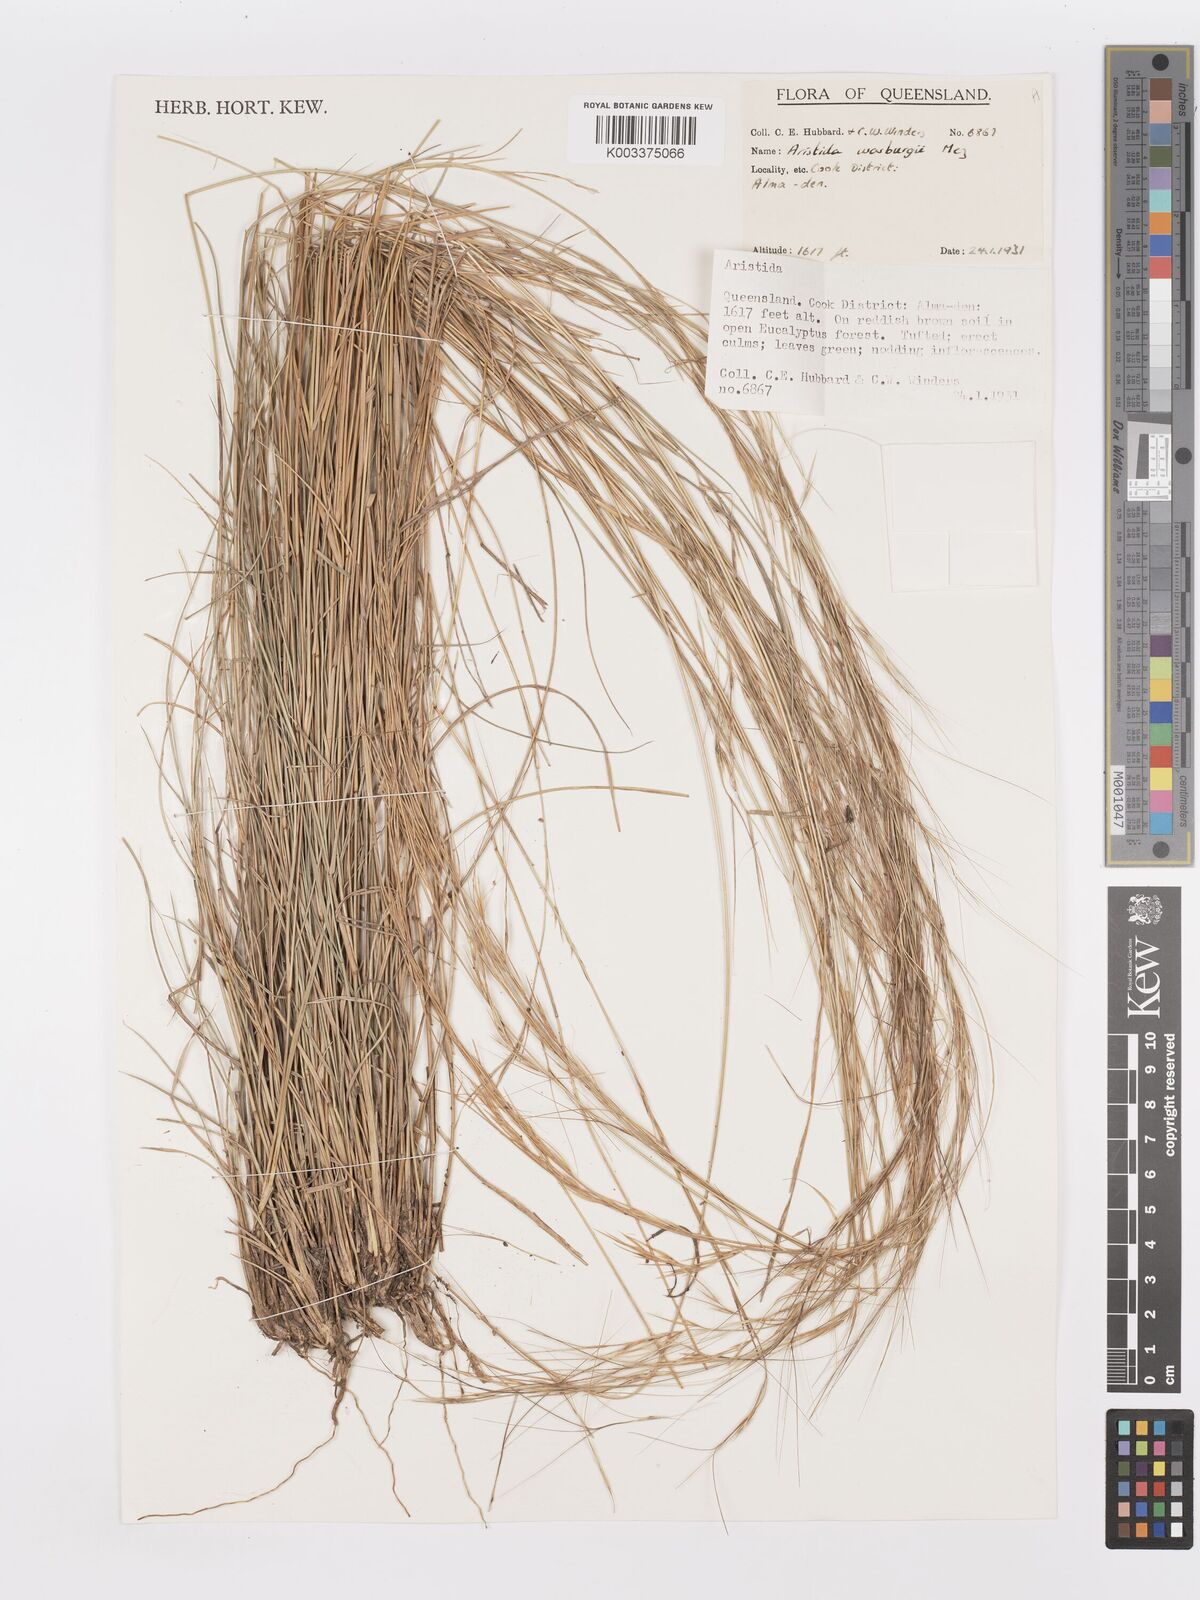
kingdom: Plantae
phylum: Tracheophyta
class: Liliopsida
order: Poales
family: Poaceae
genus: Aristida
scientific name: Aristida warburgii
